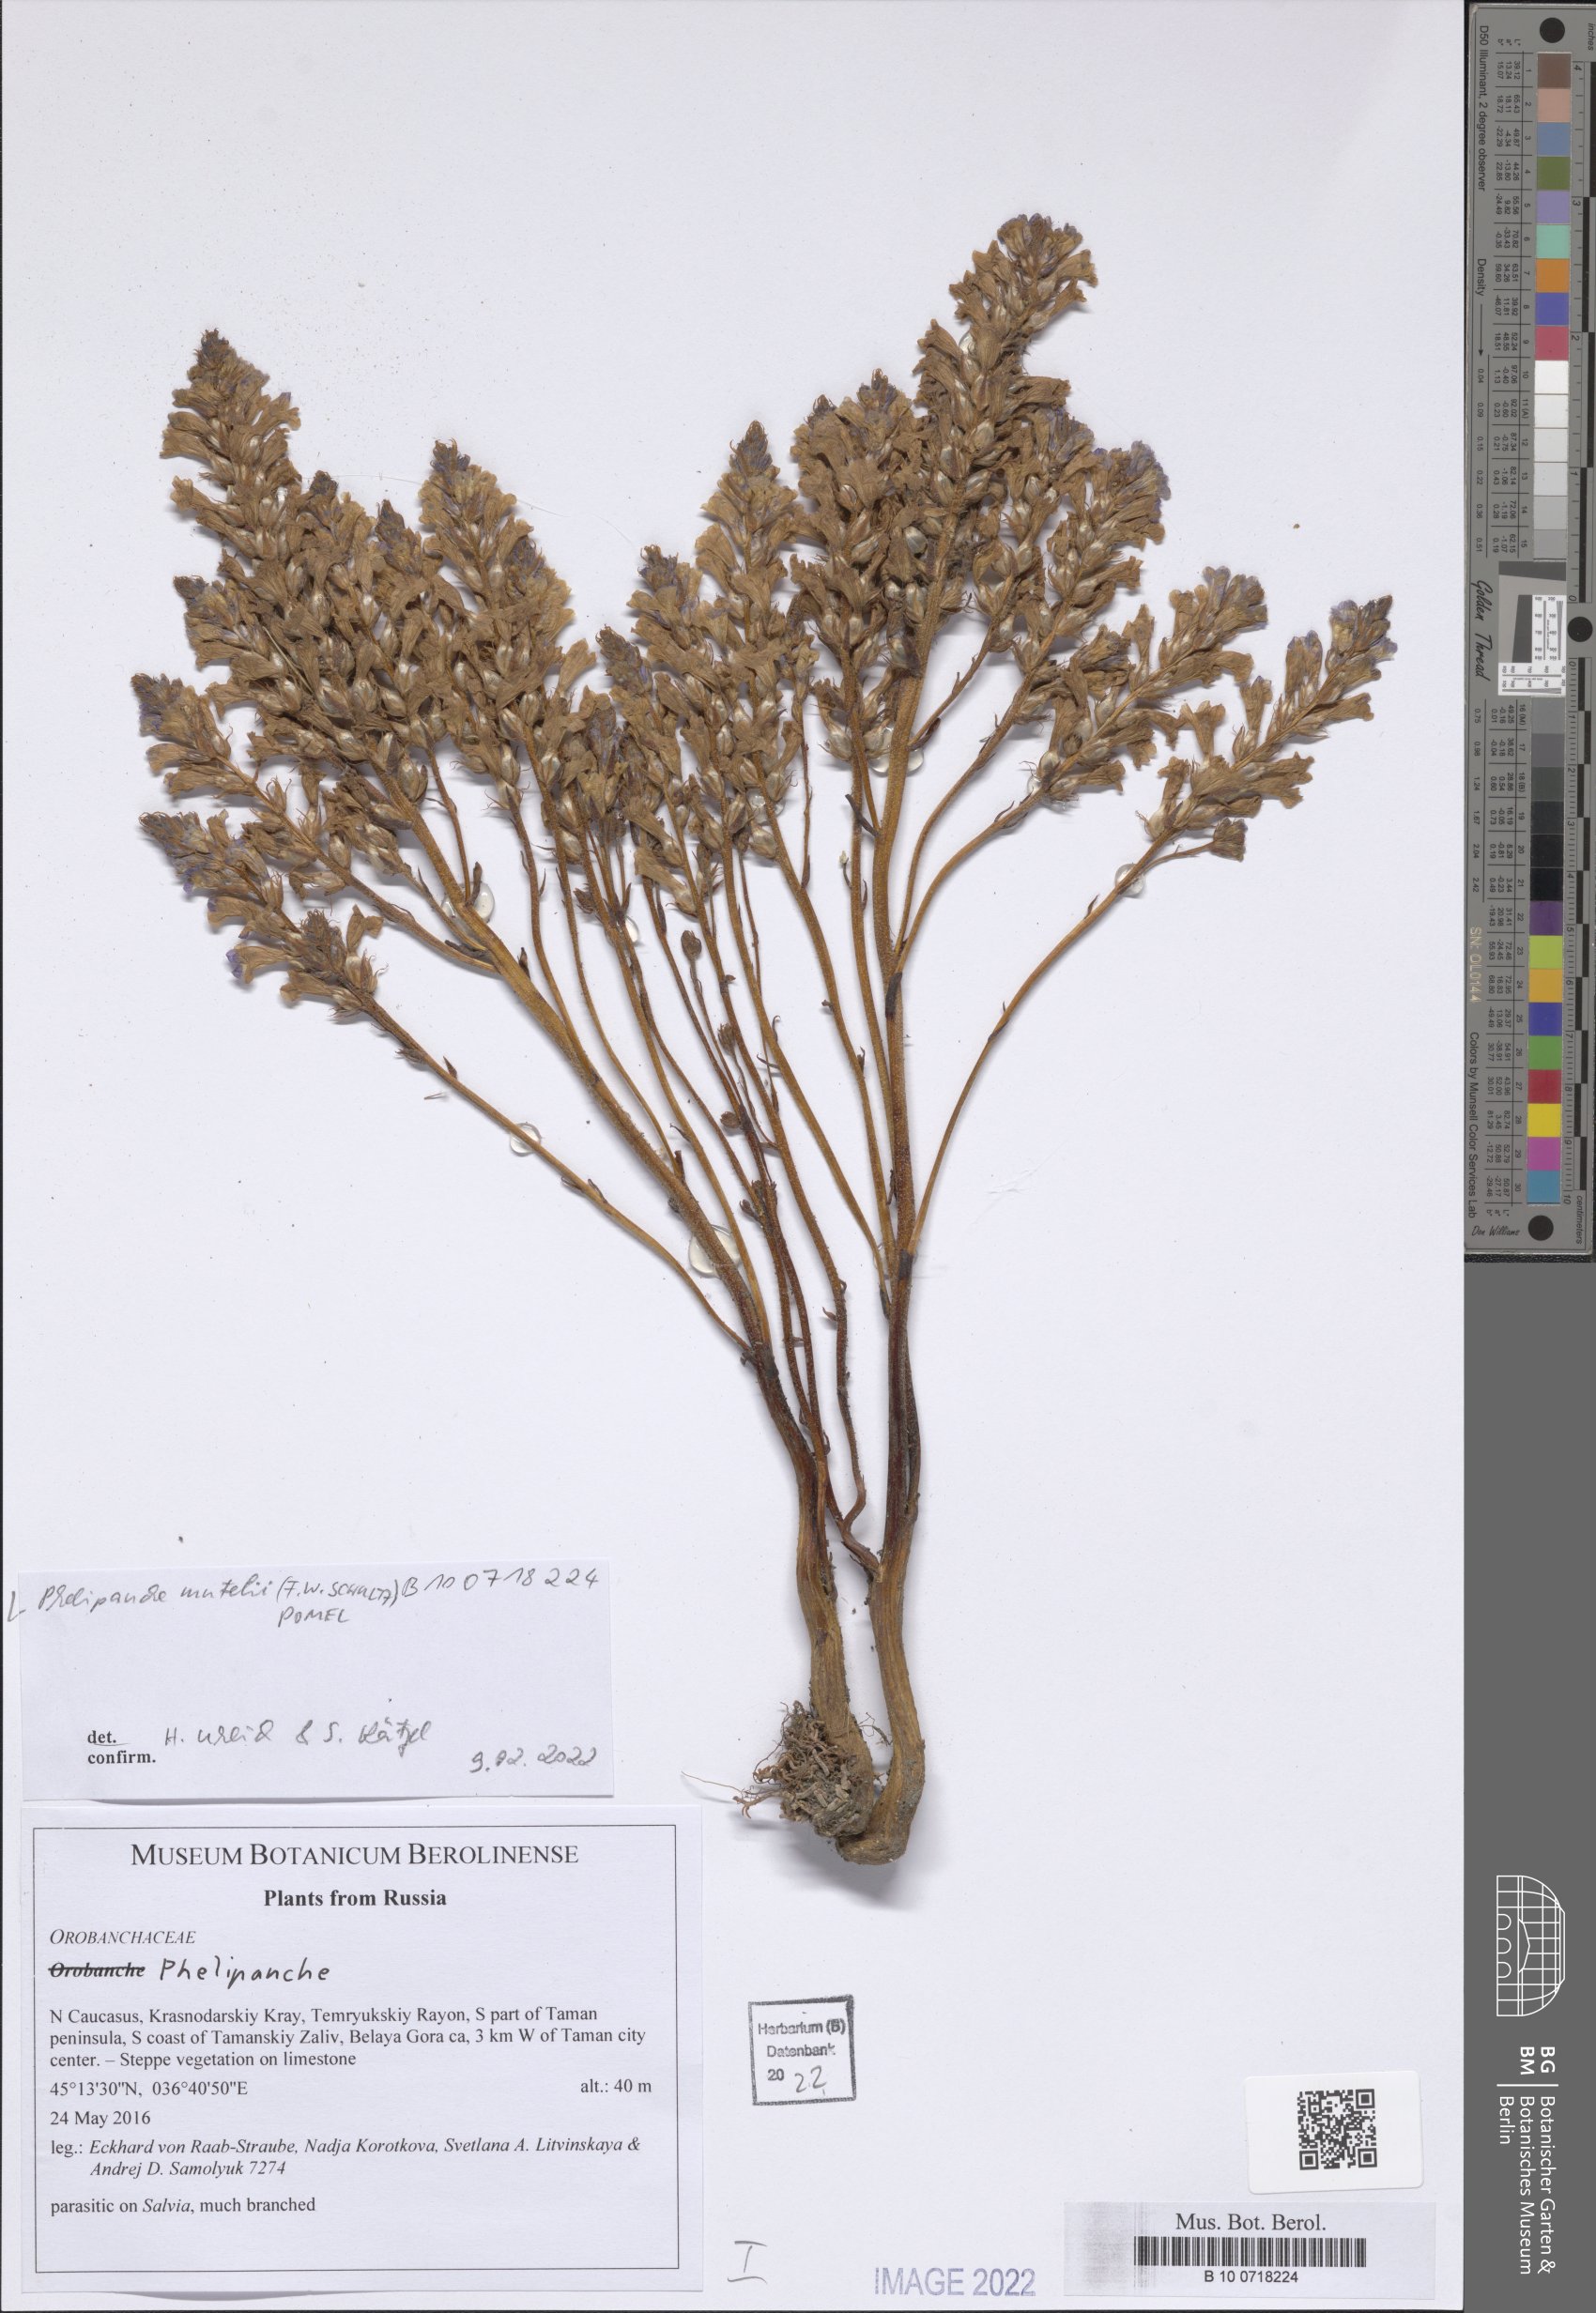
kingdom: Plantae
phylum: Tracheophyta
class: Magnoliopsida
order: Lamiales
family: Orobanchaceae
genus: Phelipanche
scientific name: Phelipanche mutelii
